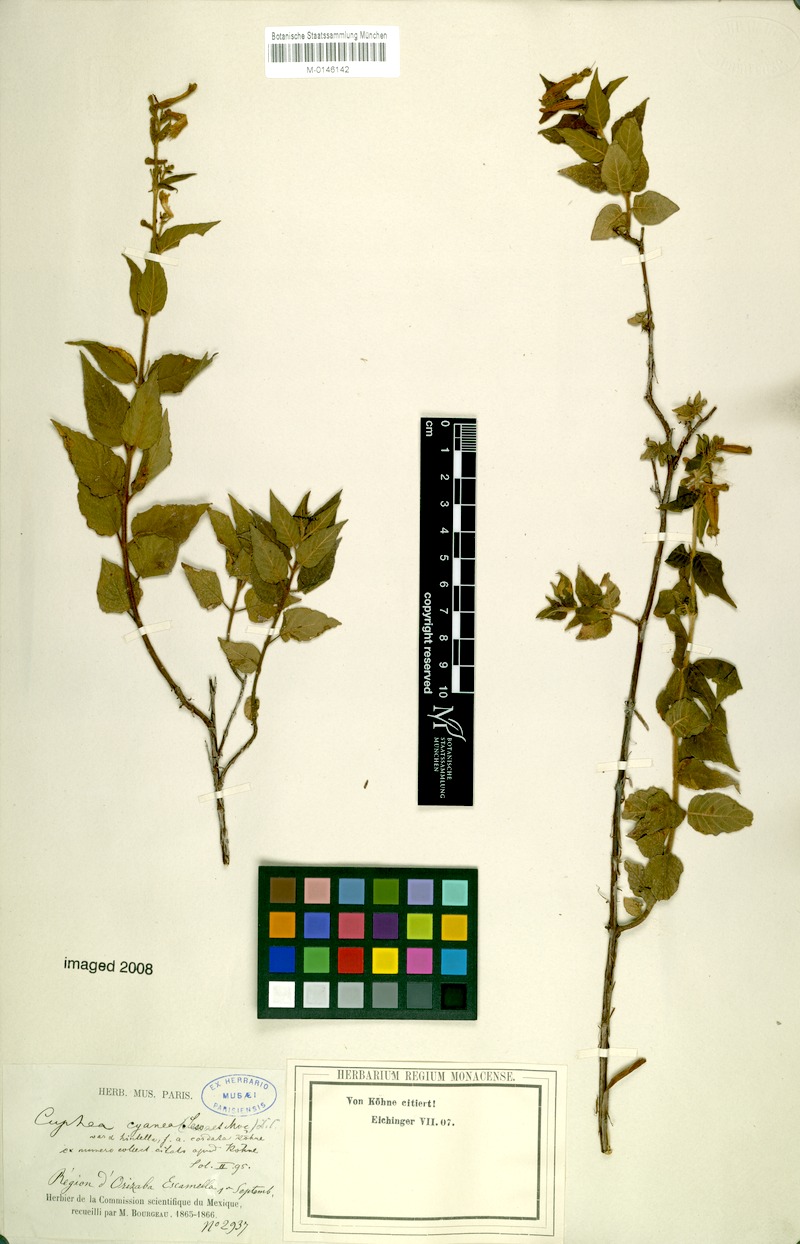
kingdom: Plantae
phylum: Tracheophyta
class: Magnoliopsida
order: Myrtales
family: Lythraceae
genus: Cuphea
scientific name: Cuphea cyanaea
